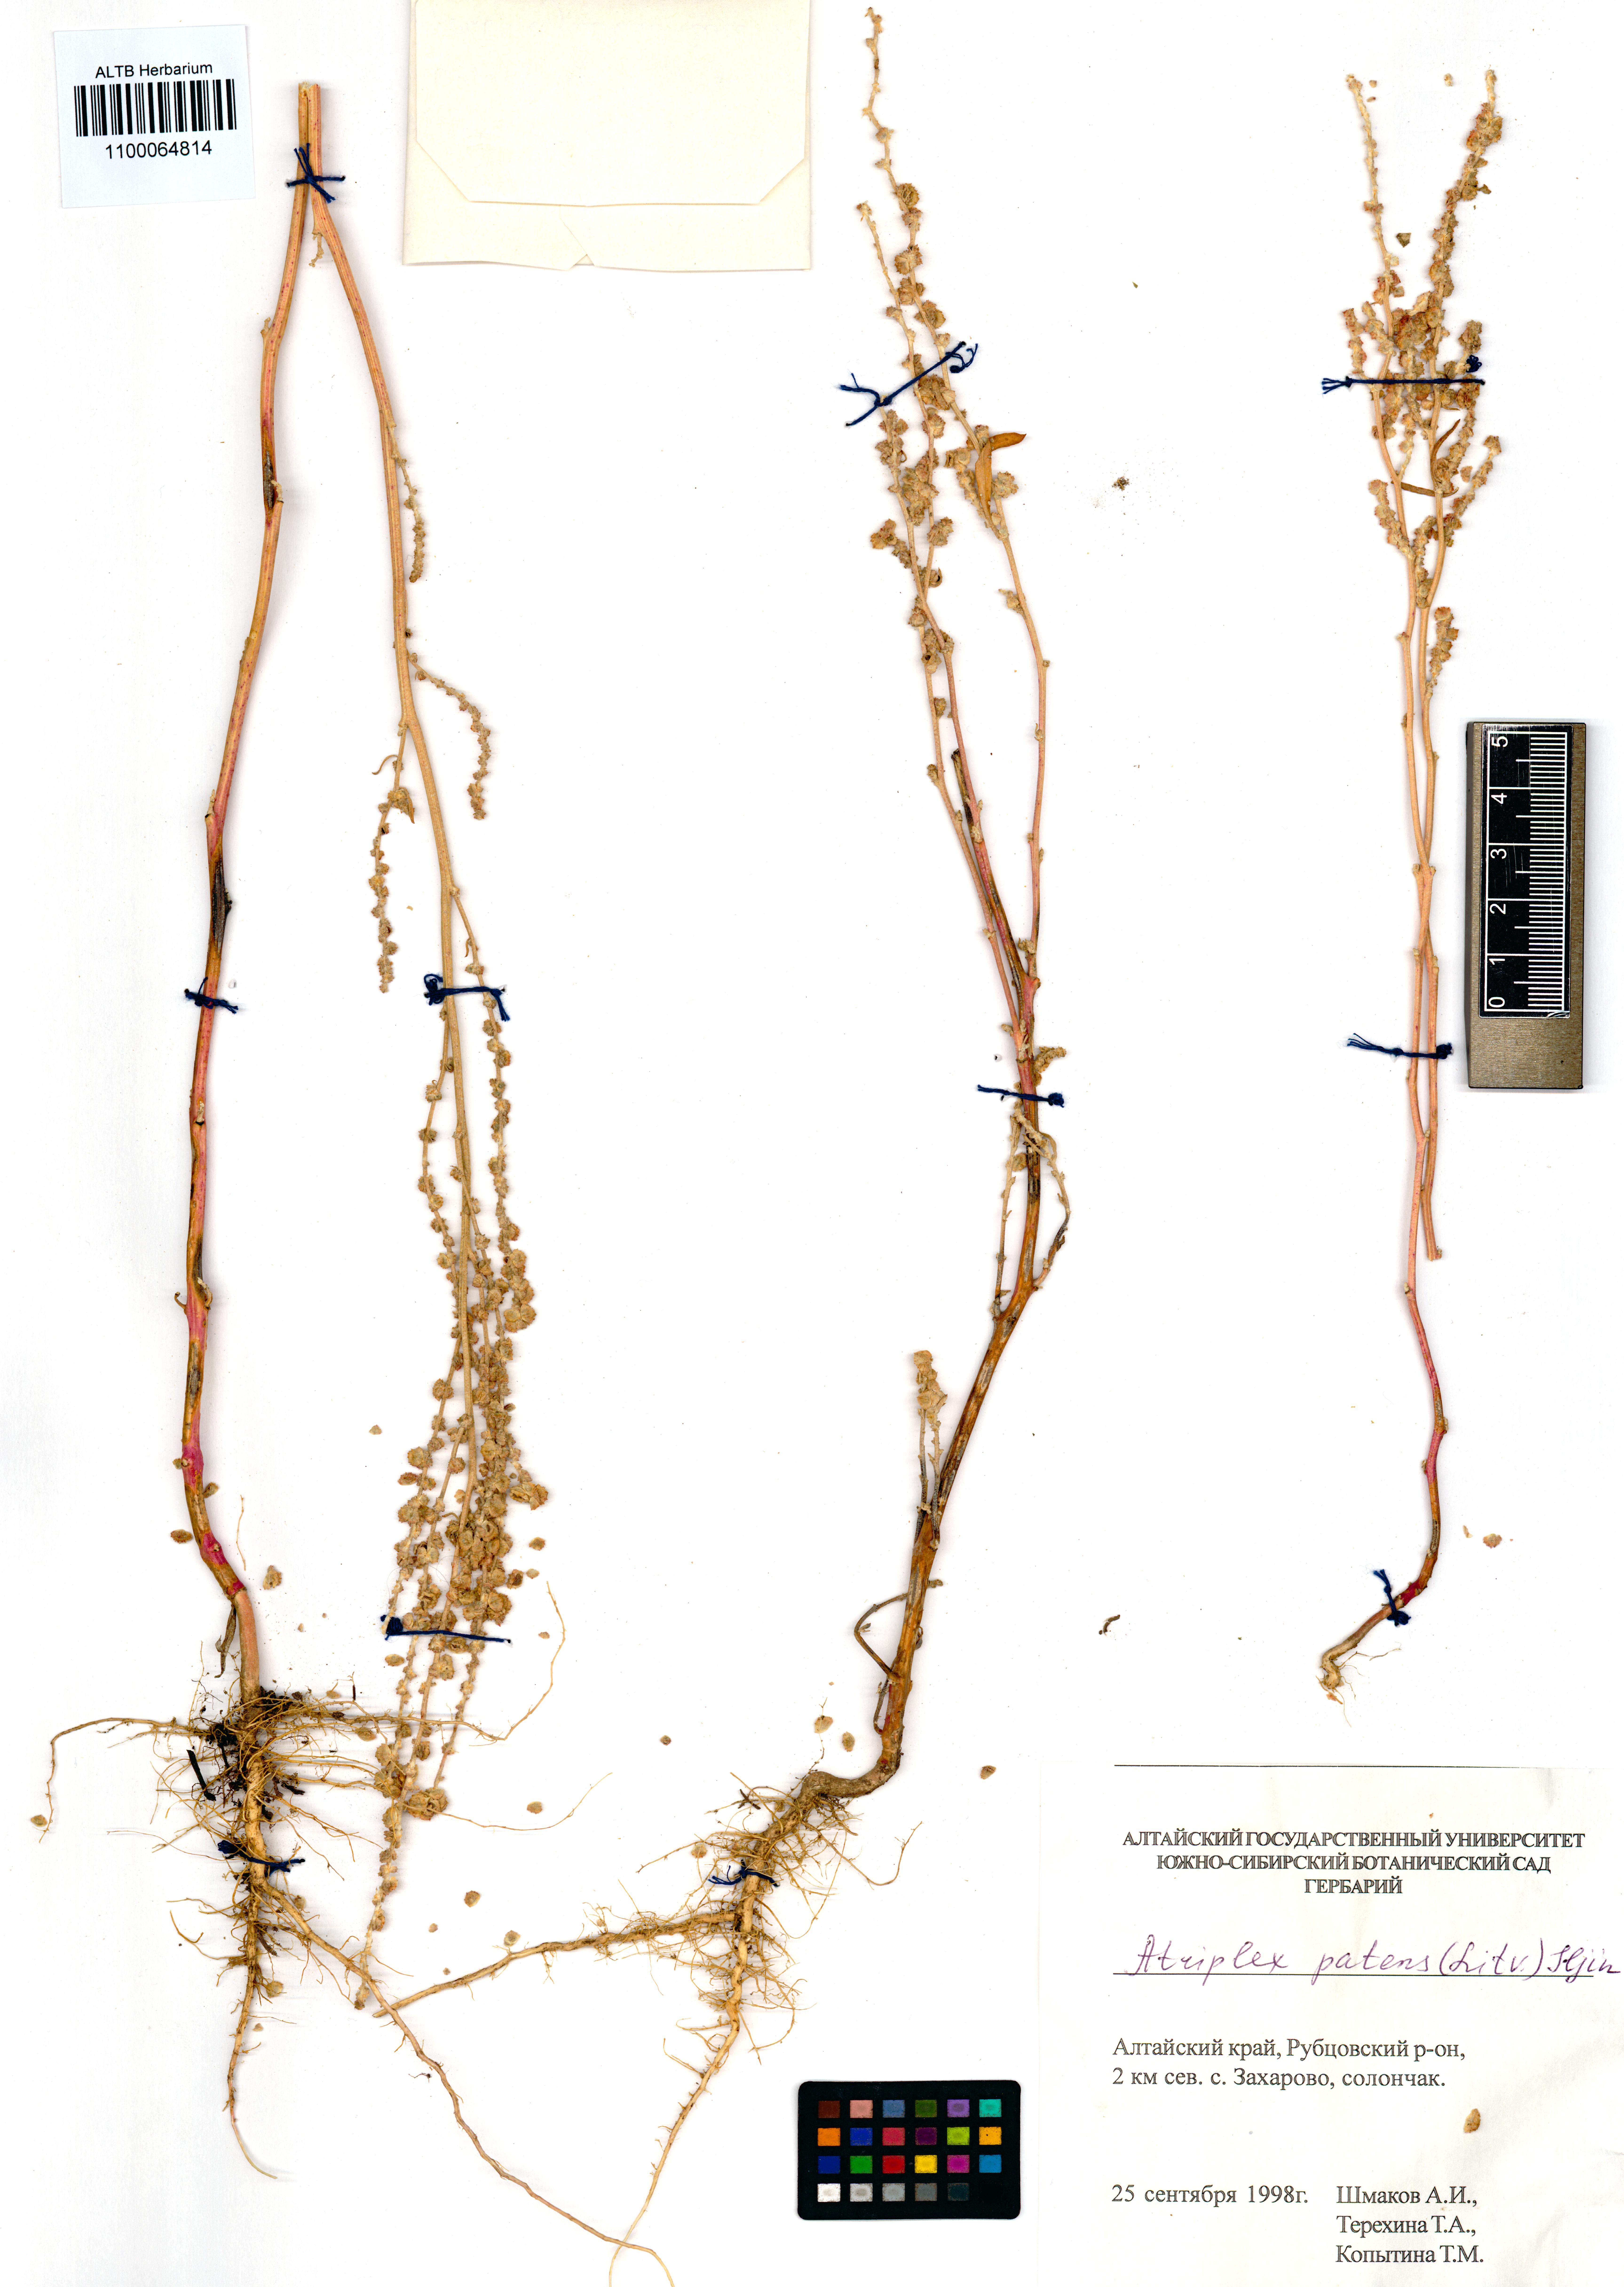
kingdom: Plantae
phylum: Tracheophyta
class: Magnoliopsida
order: Caryophyllales
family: Amaranthaceae
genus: Atriplex
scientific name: Atriplex patens
